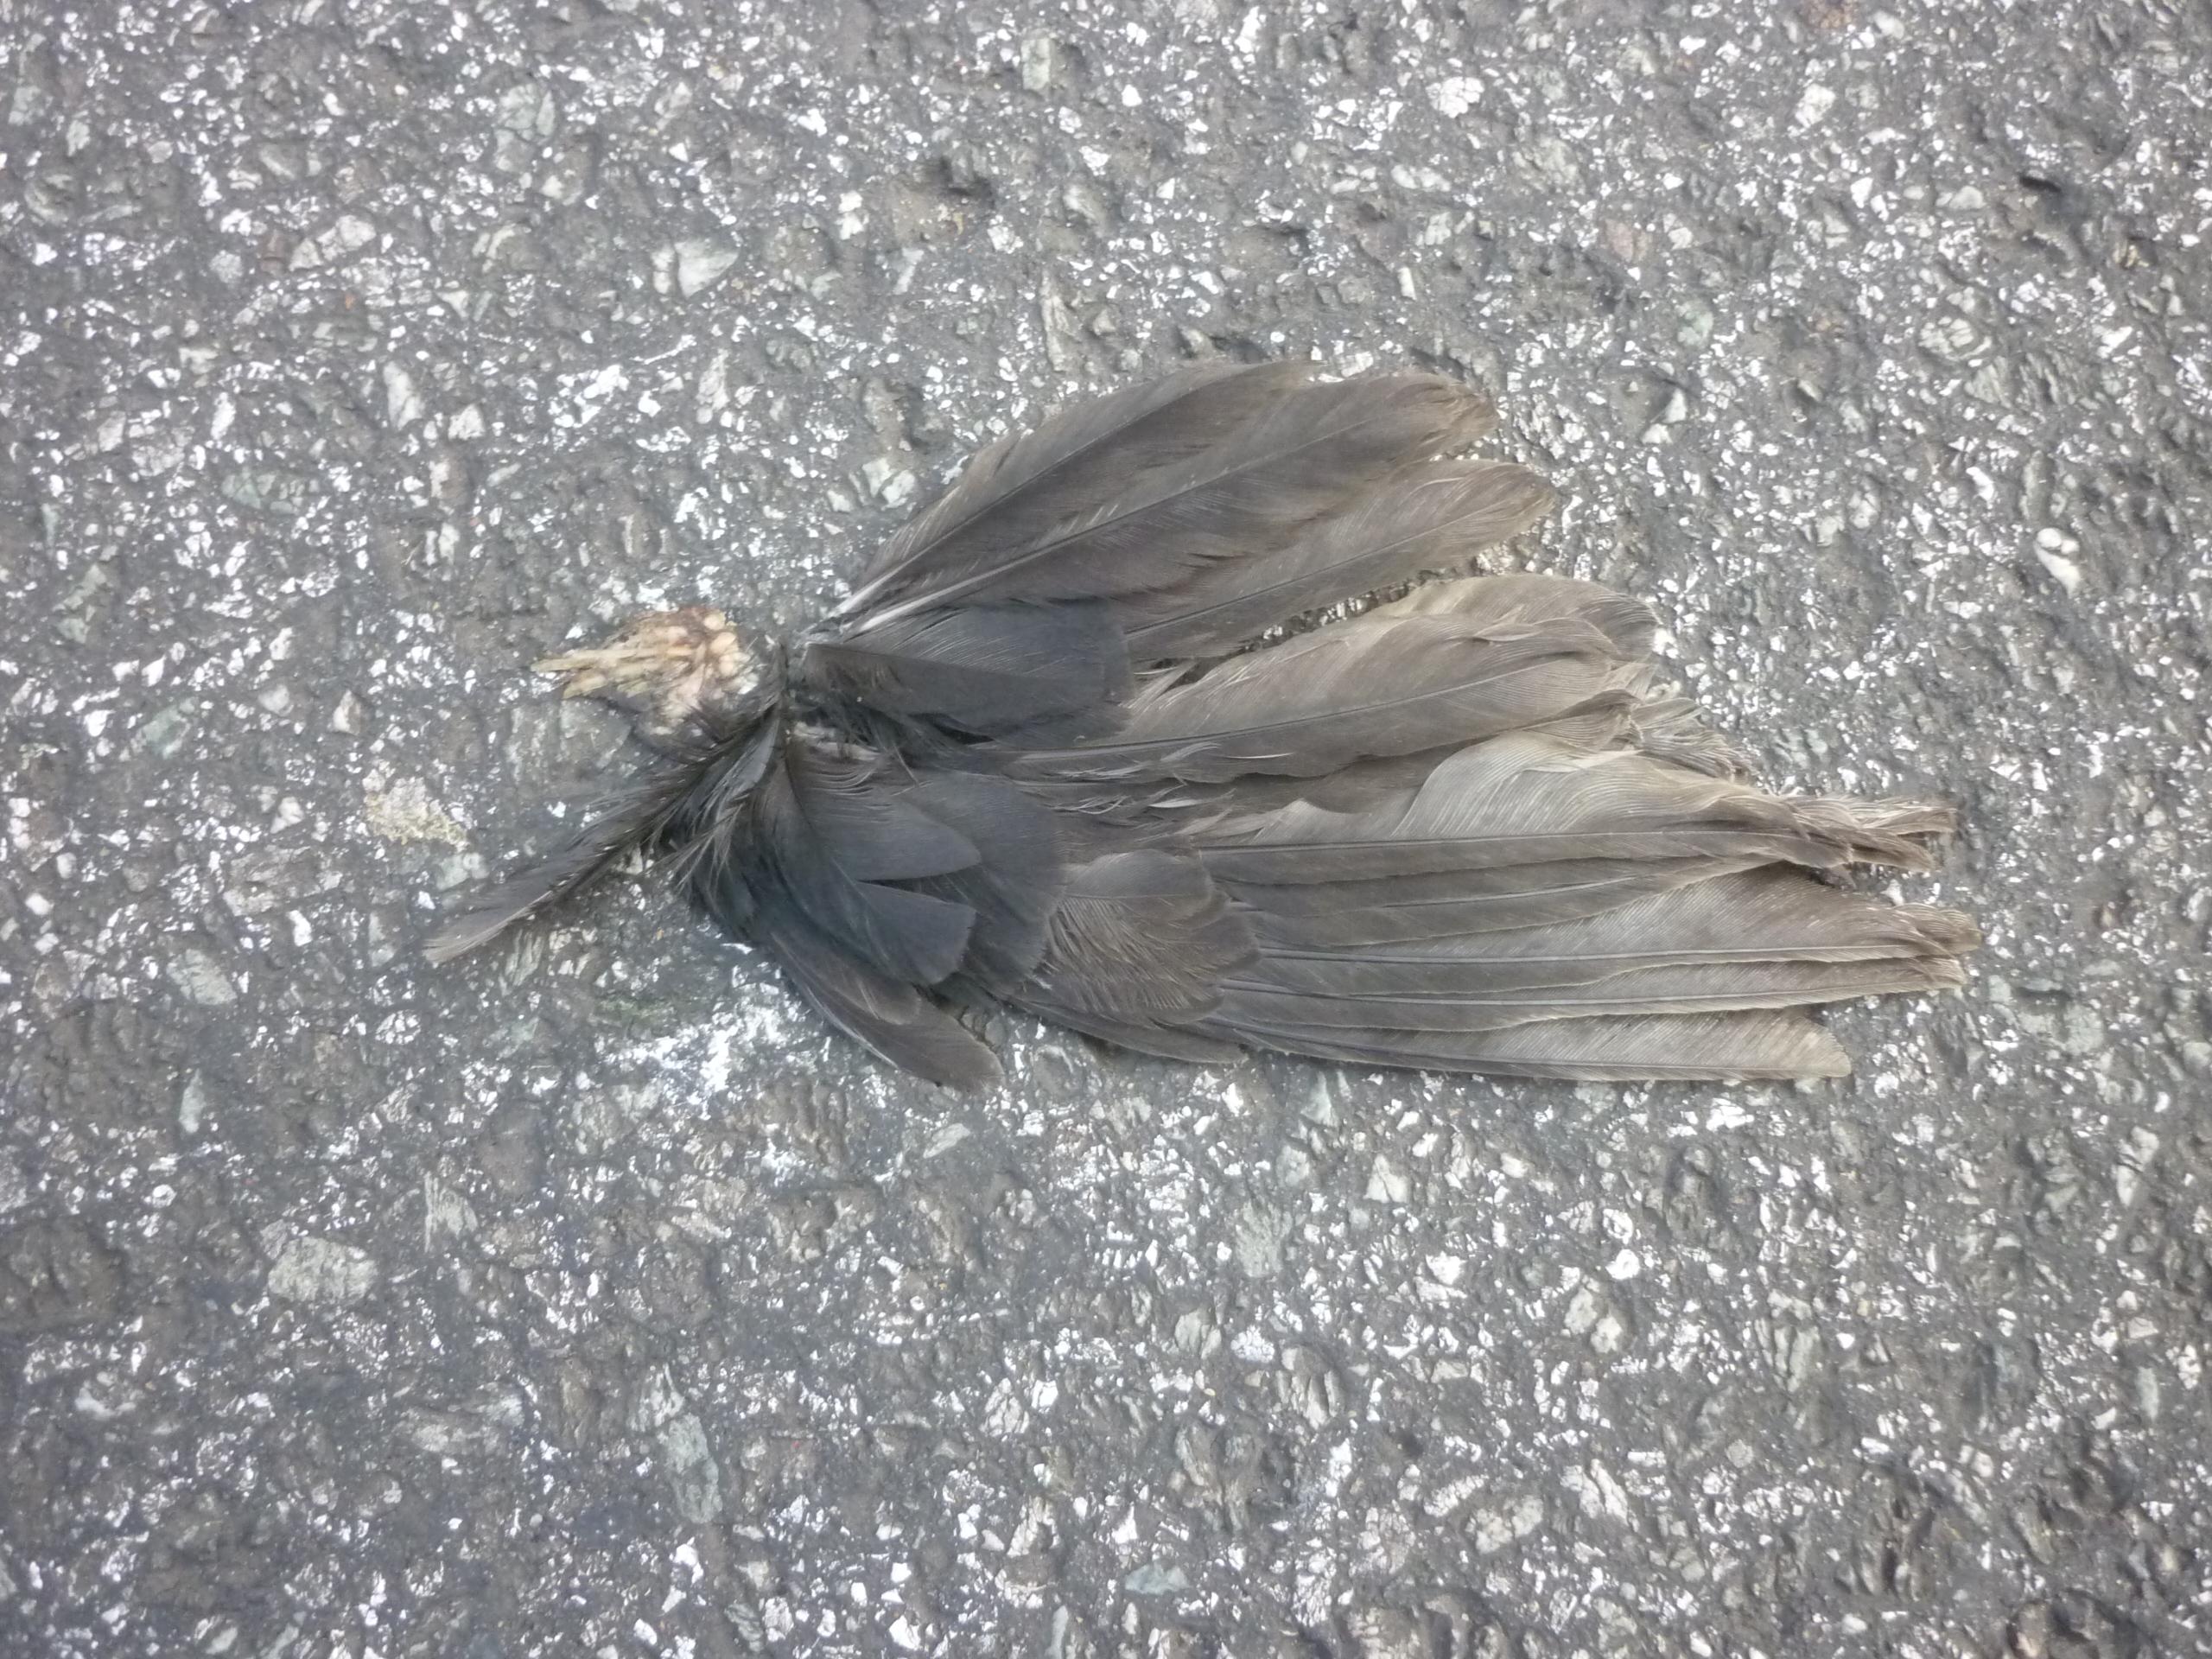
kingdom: Animalia
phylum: Chordata
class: Aves
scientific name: Aves
